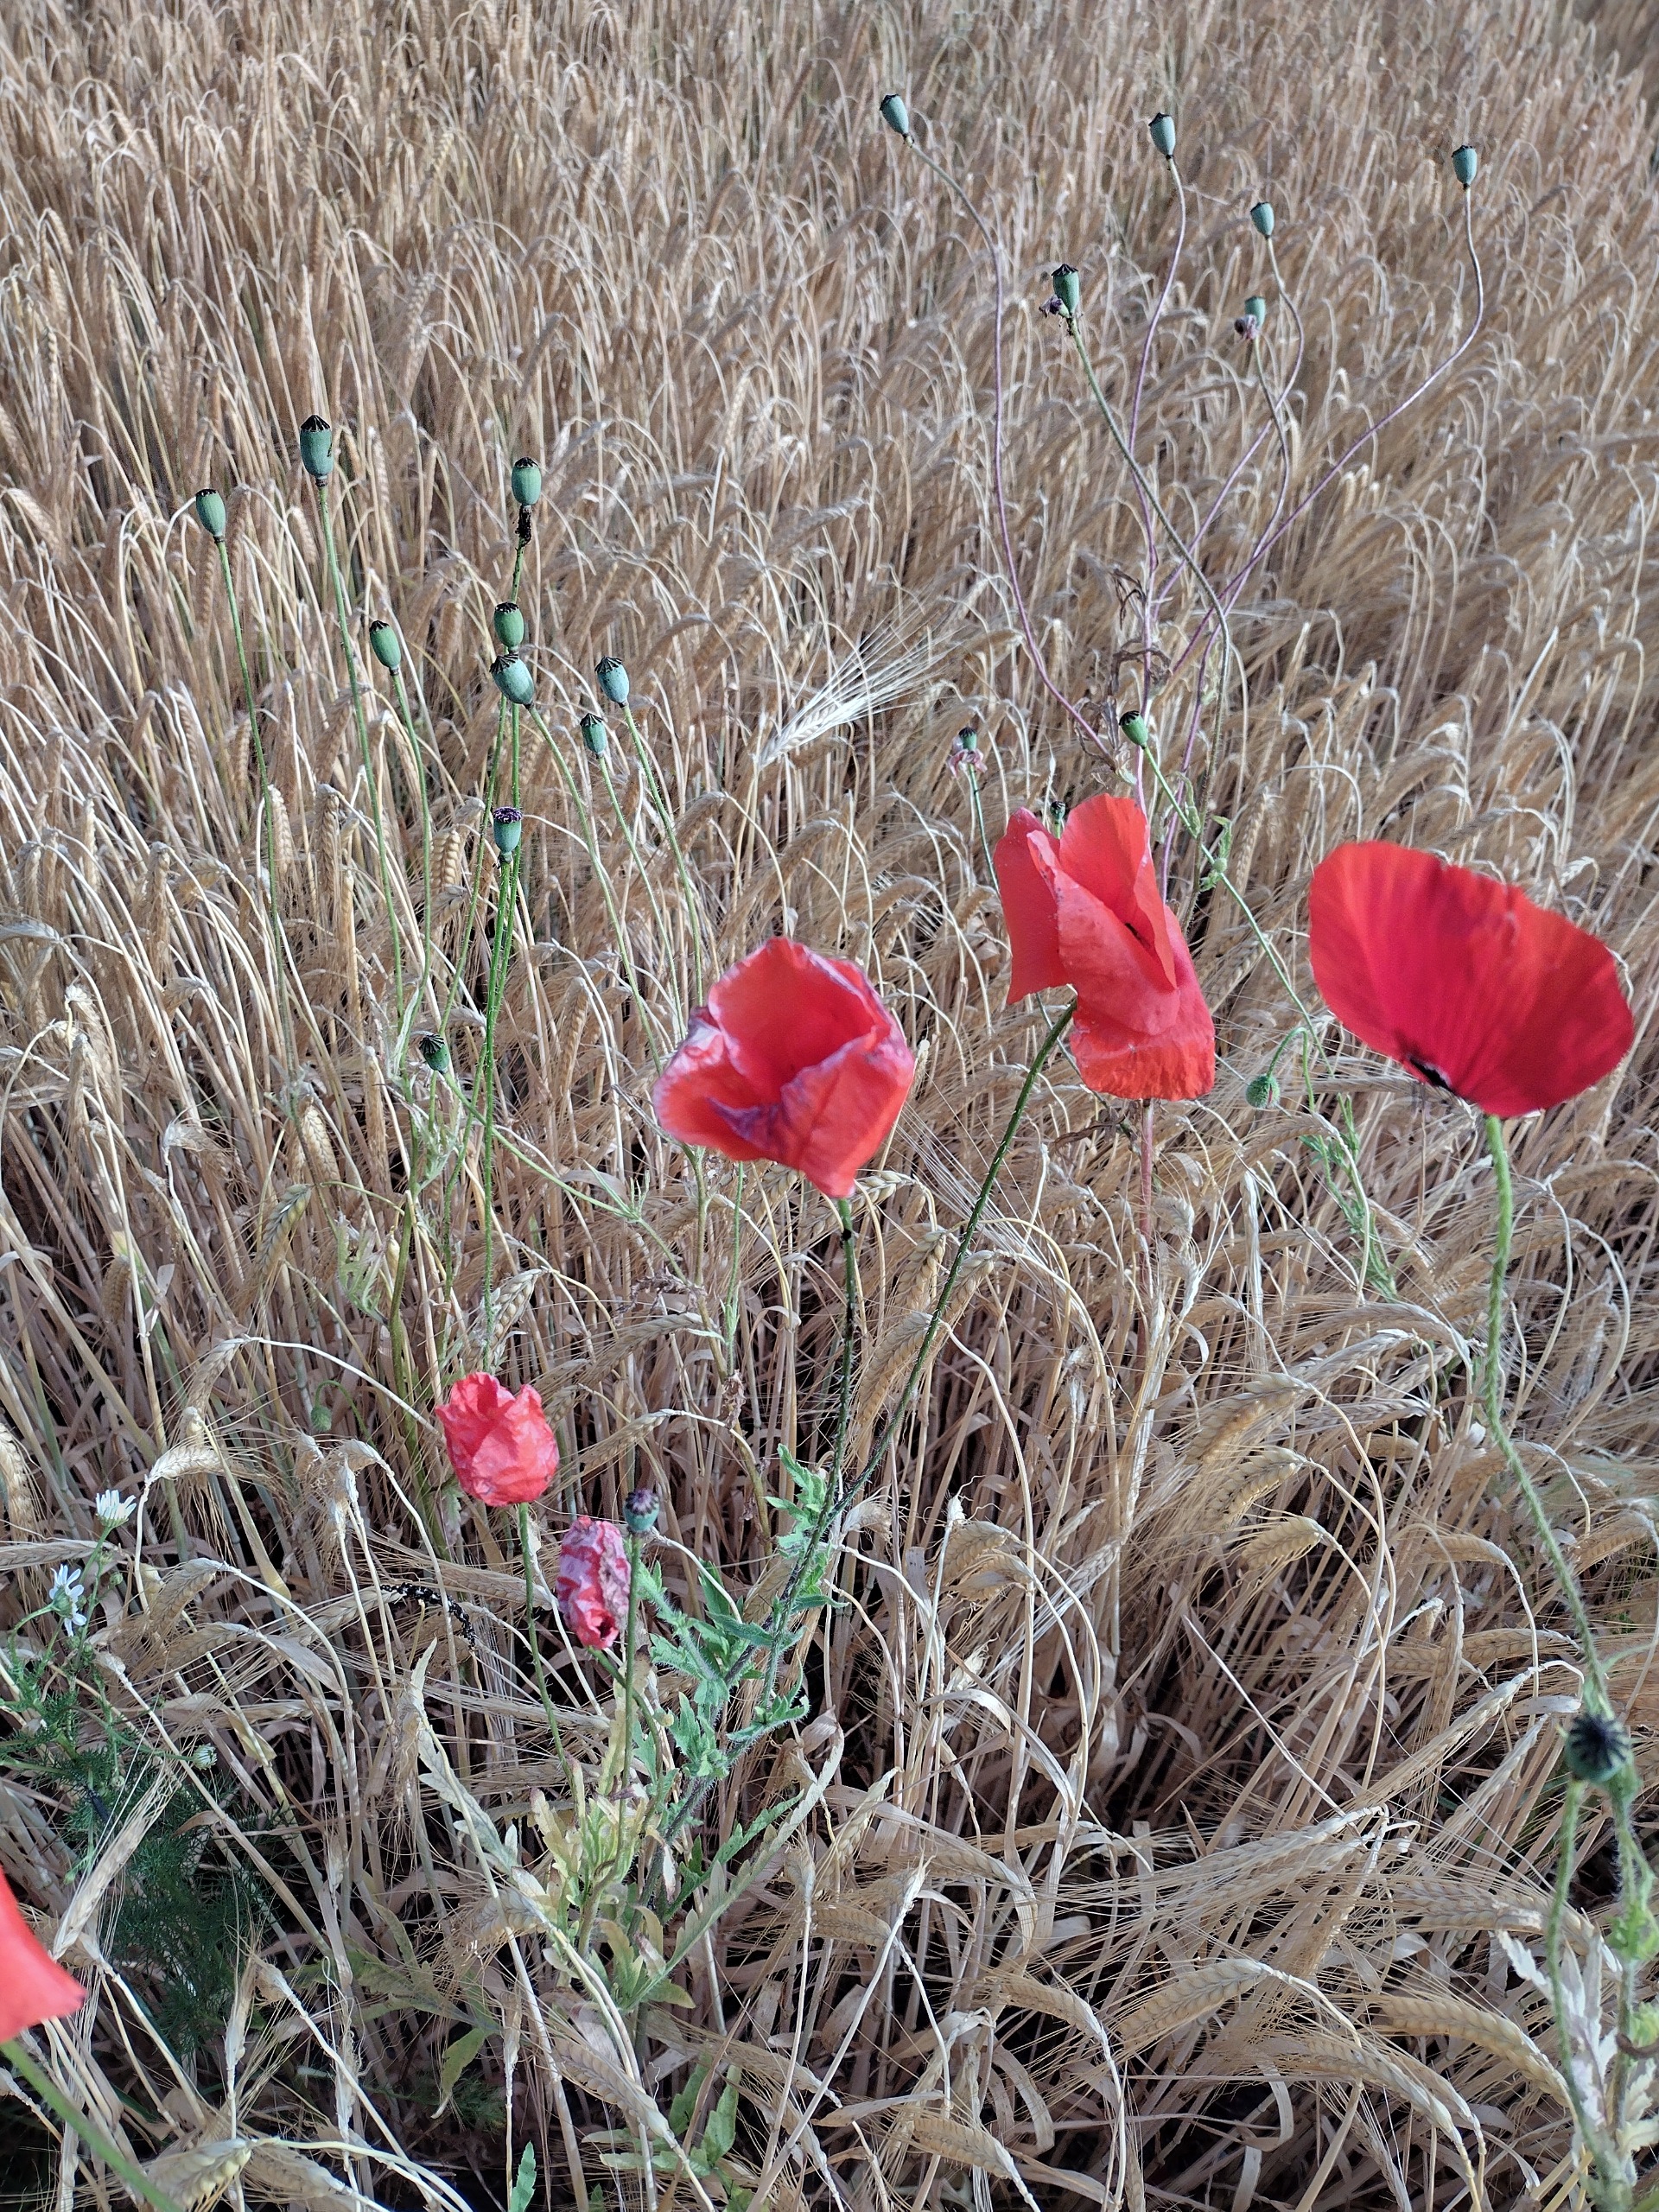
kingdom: Plantae
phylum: Tracheophyta
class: Magnoliopsida
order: Ranunculales
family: Papaveraceae
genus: Papaver
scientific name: Papaver rhoeas
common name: Korn-valmue
